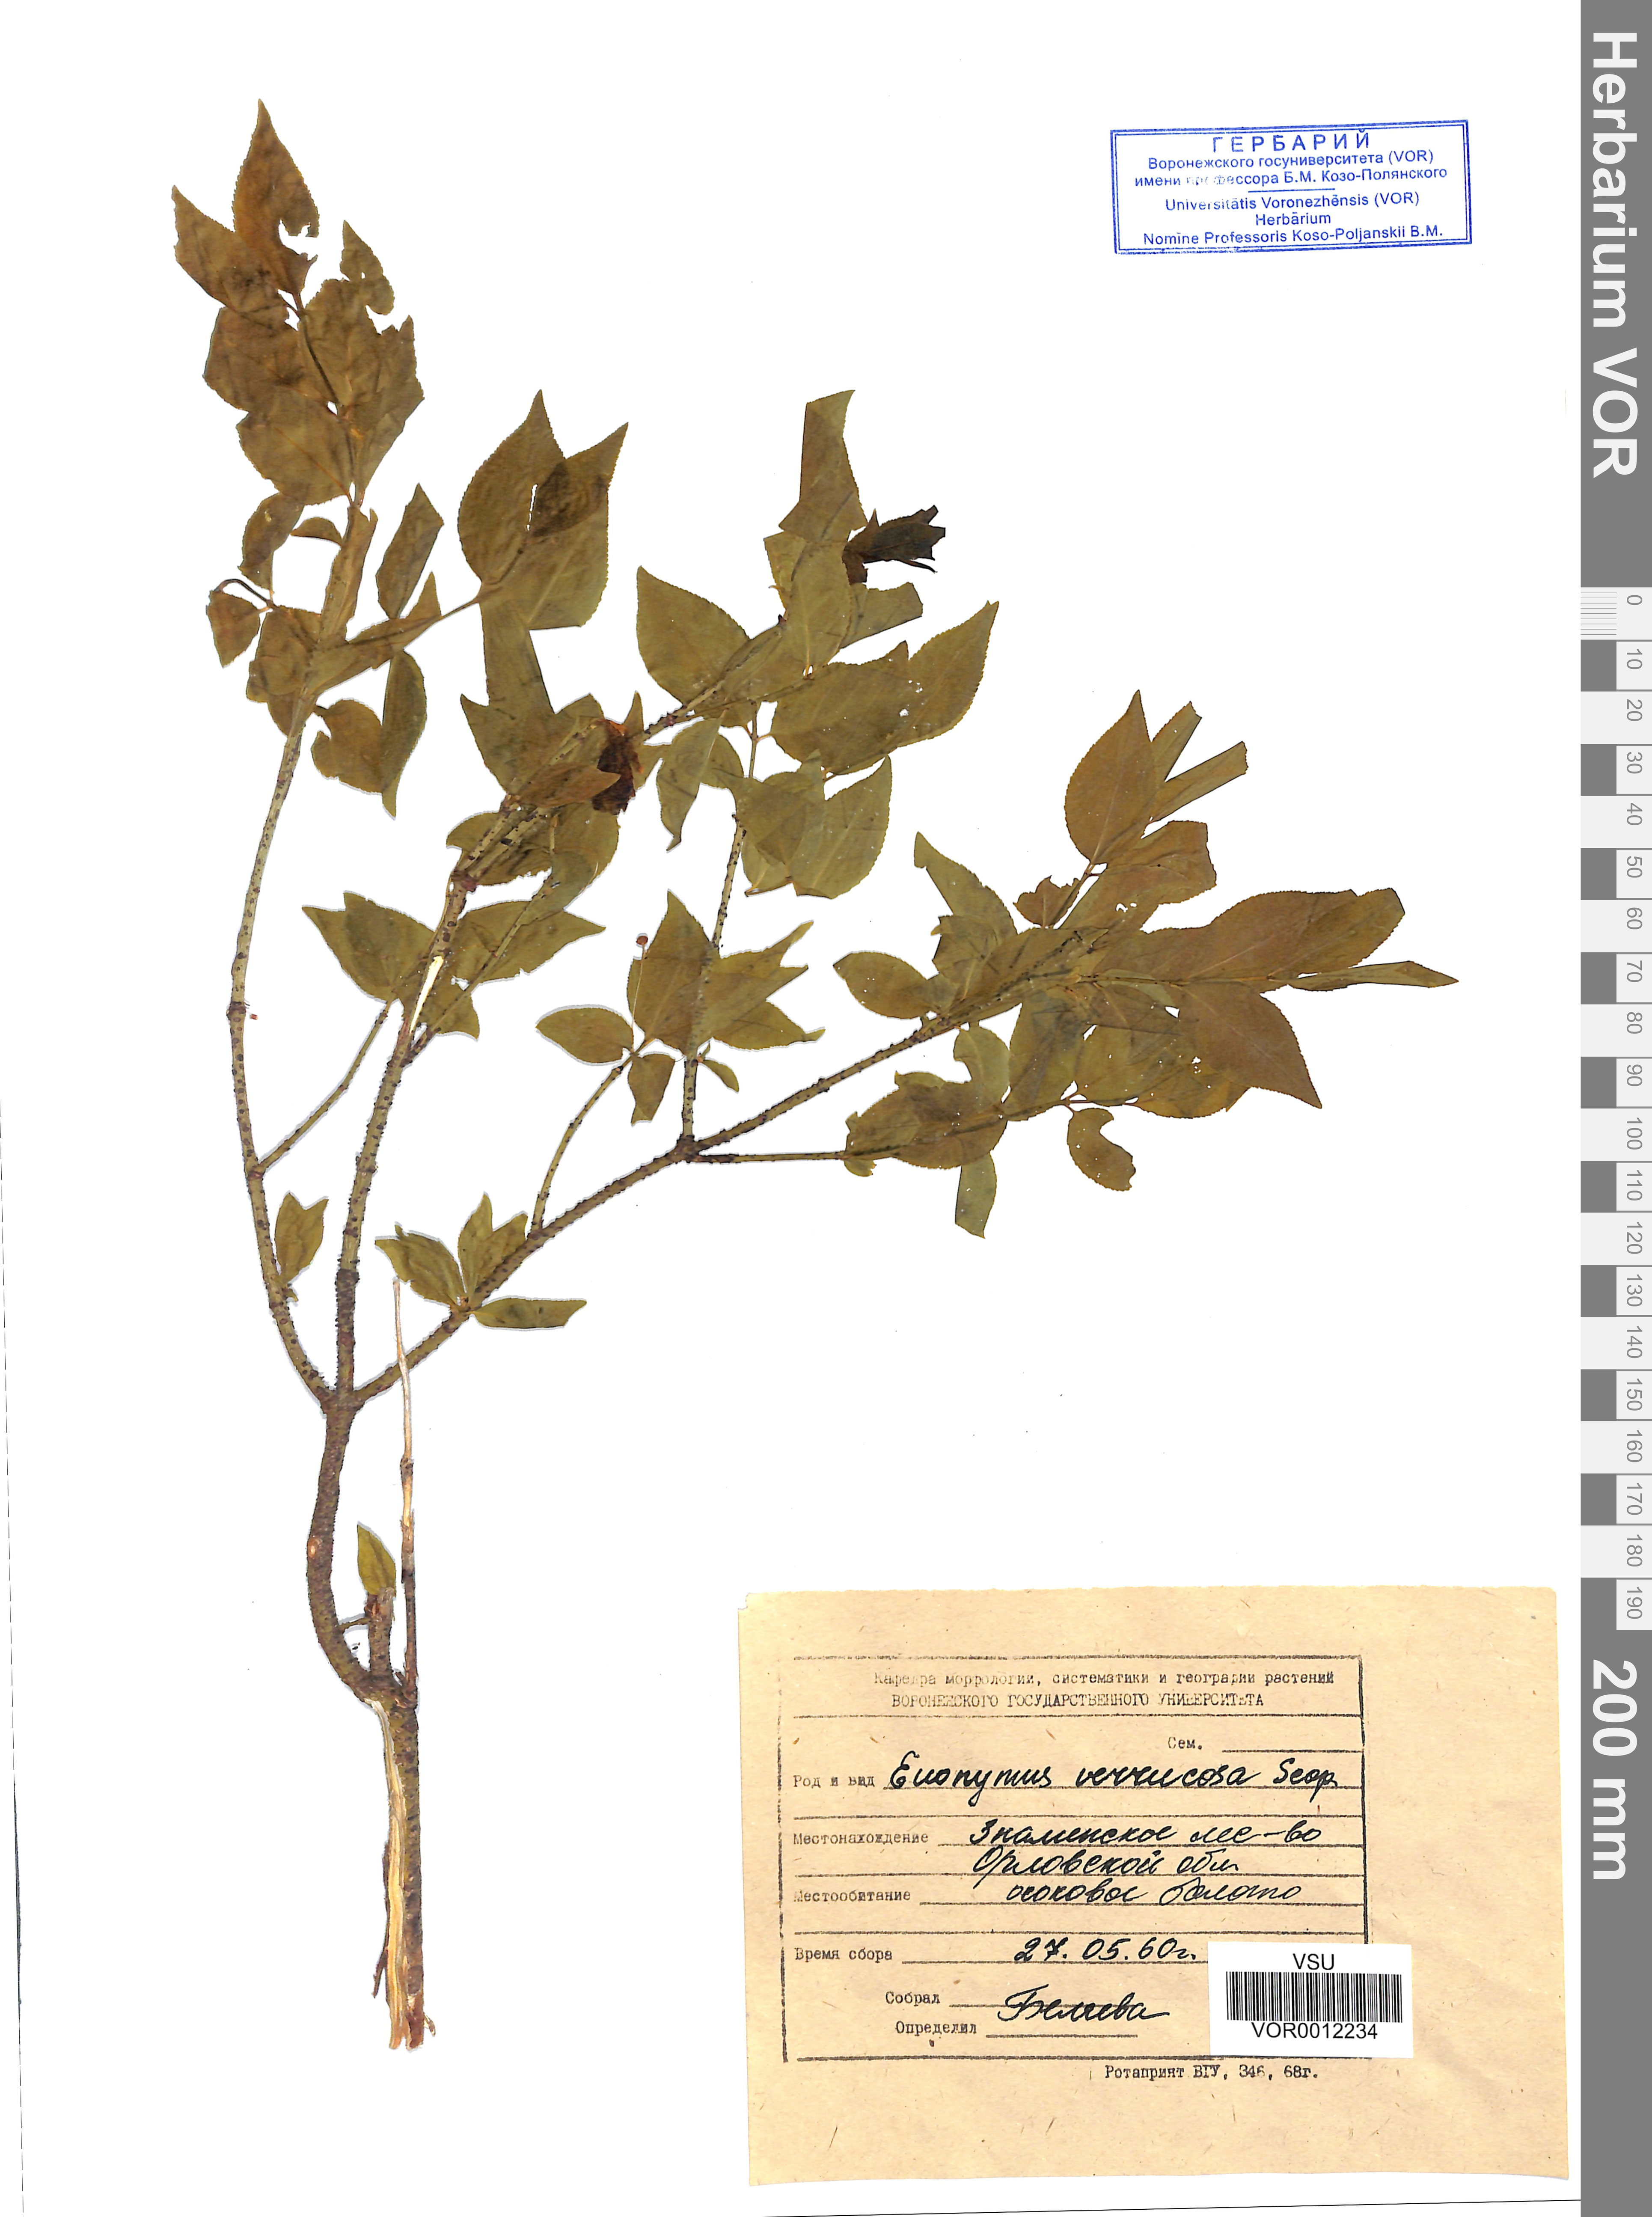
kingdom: Plantae
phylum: Tracheophyta
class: Magnoliopsida
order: Celastrales
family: Celastraceae
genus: Euonymus
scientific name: Euonymus verrucosus
